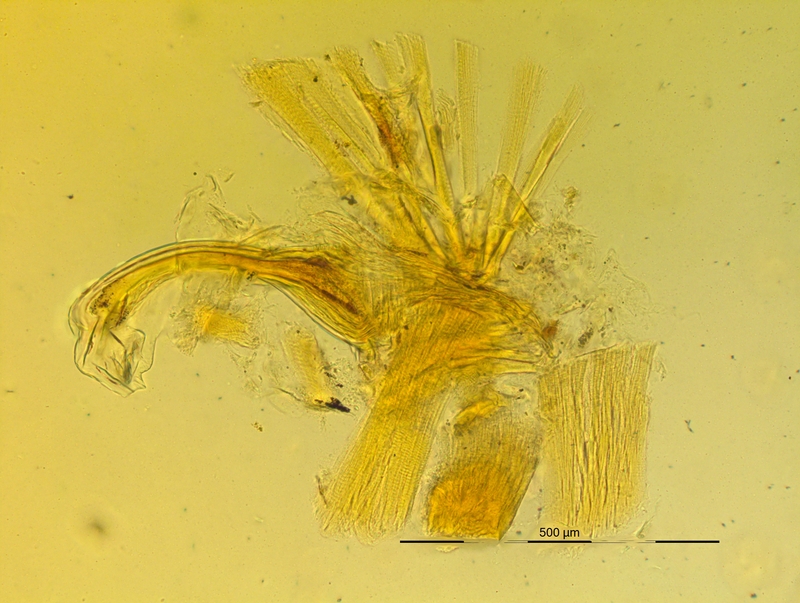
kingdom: Animalia
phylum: Arthropoda
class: Diplopoda
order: Chordeumatida
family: Craspedosomatidae
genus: Pyrgocyphosoma
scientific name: Pyrgocyphosoma tridentinum
